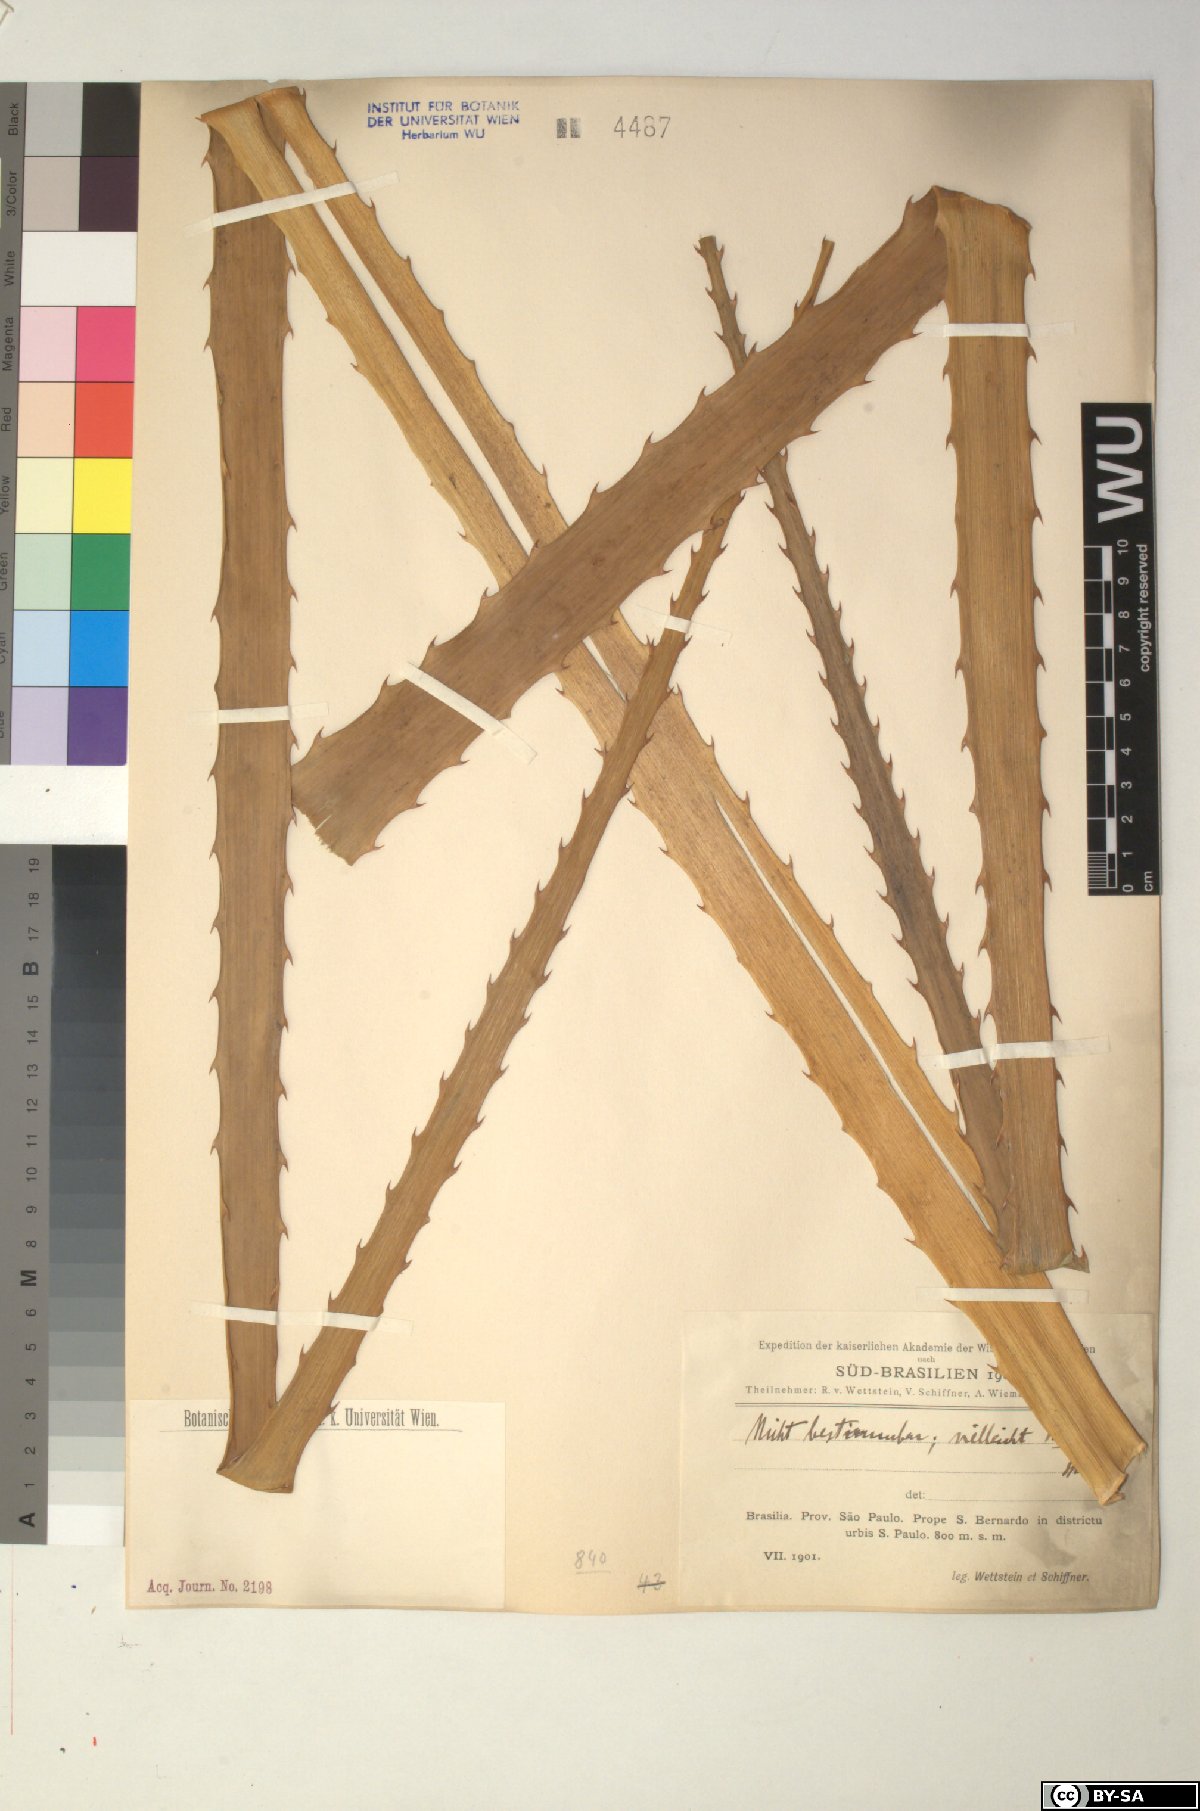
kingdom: Plantae
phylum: Tracheophyta
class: Liliopsida
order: Poales
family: Bromeliaceae
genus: Bromelia
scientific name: Bromelia
